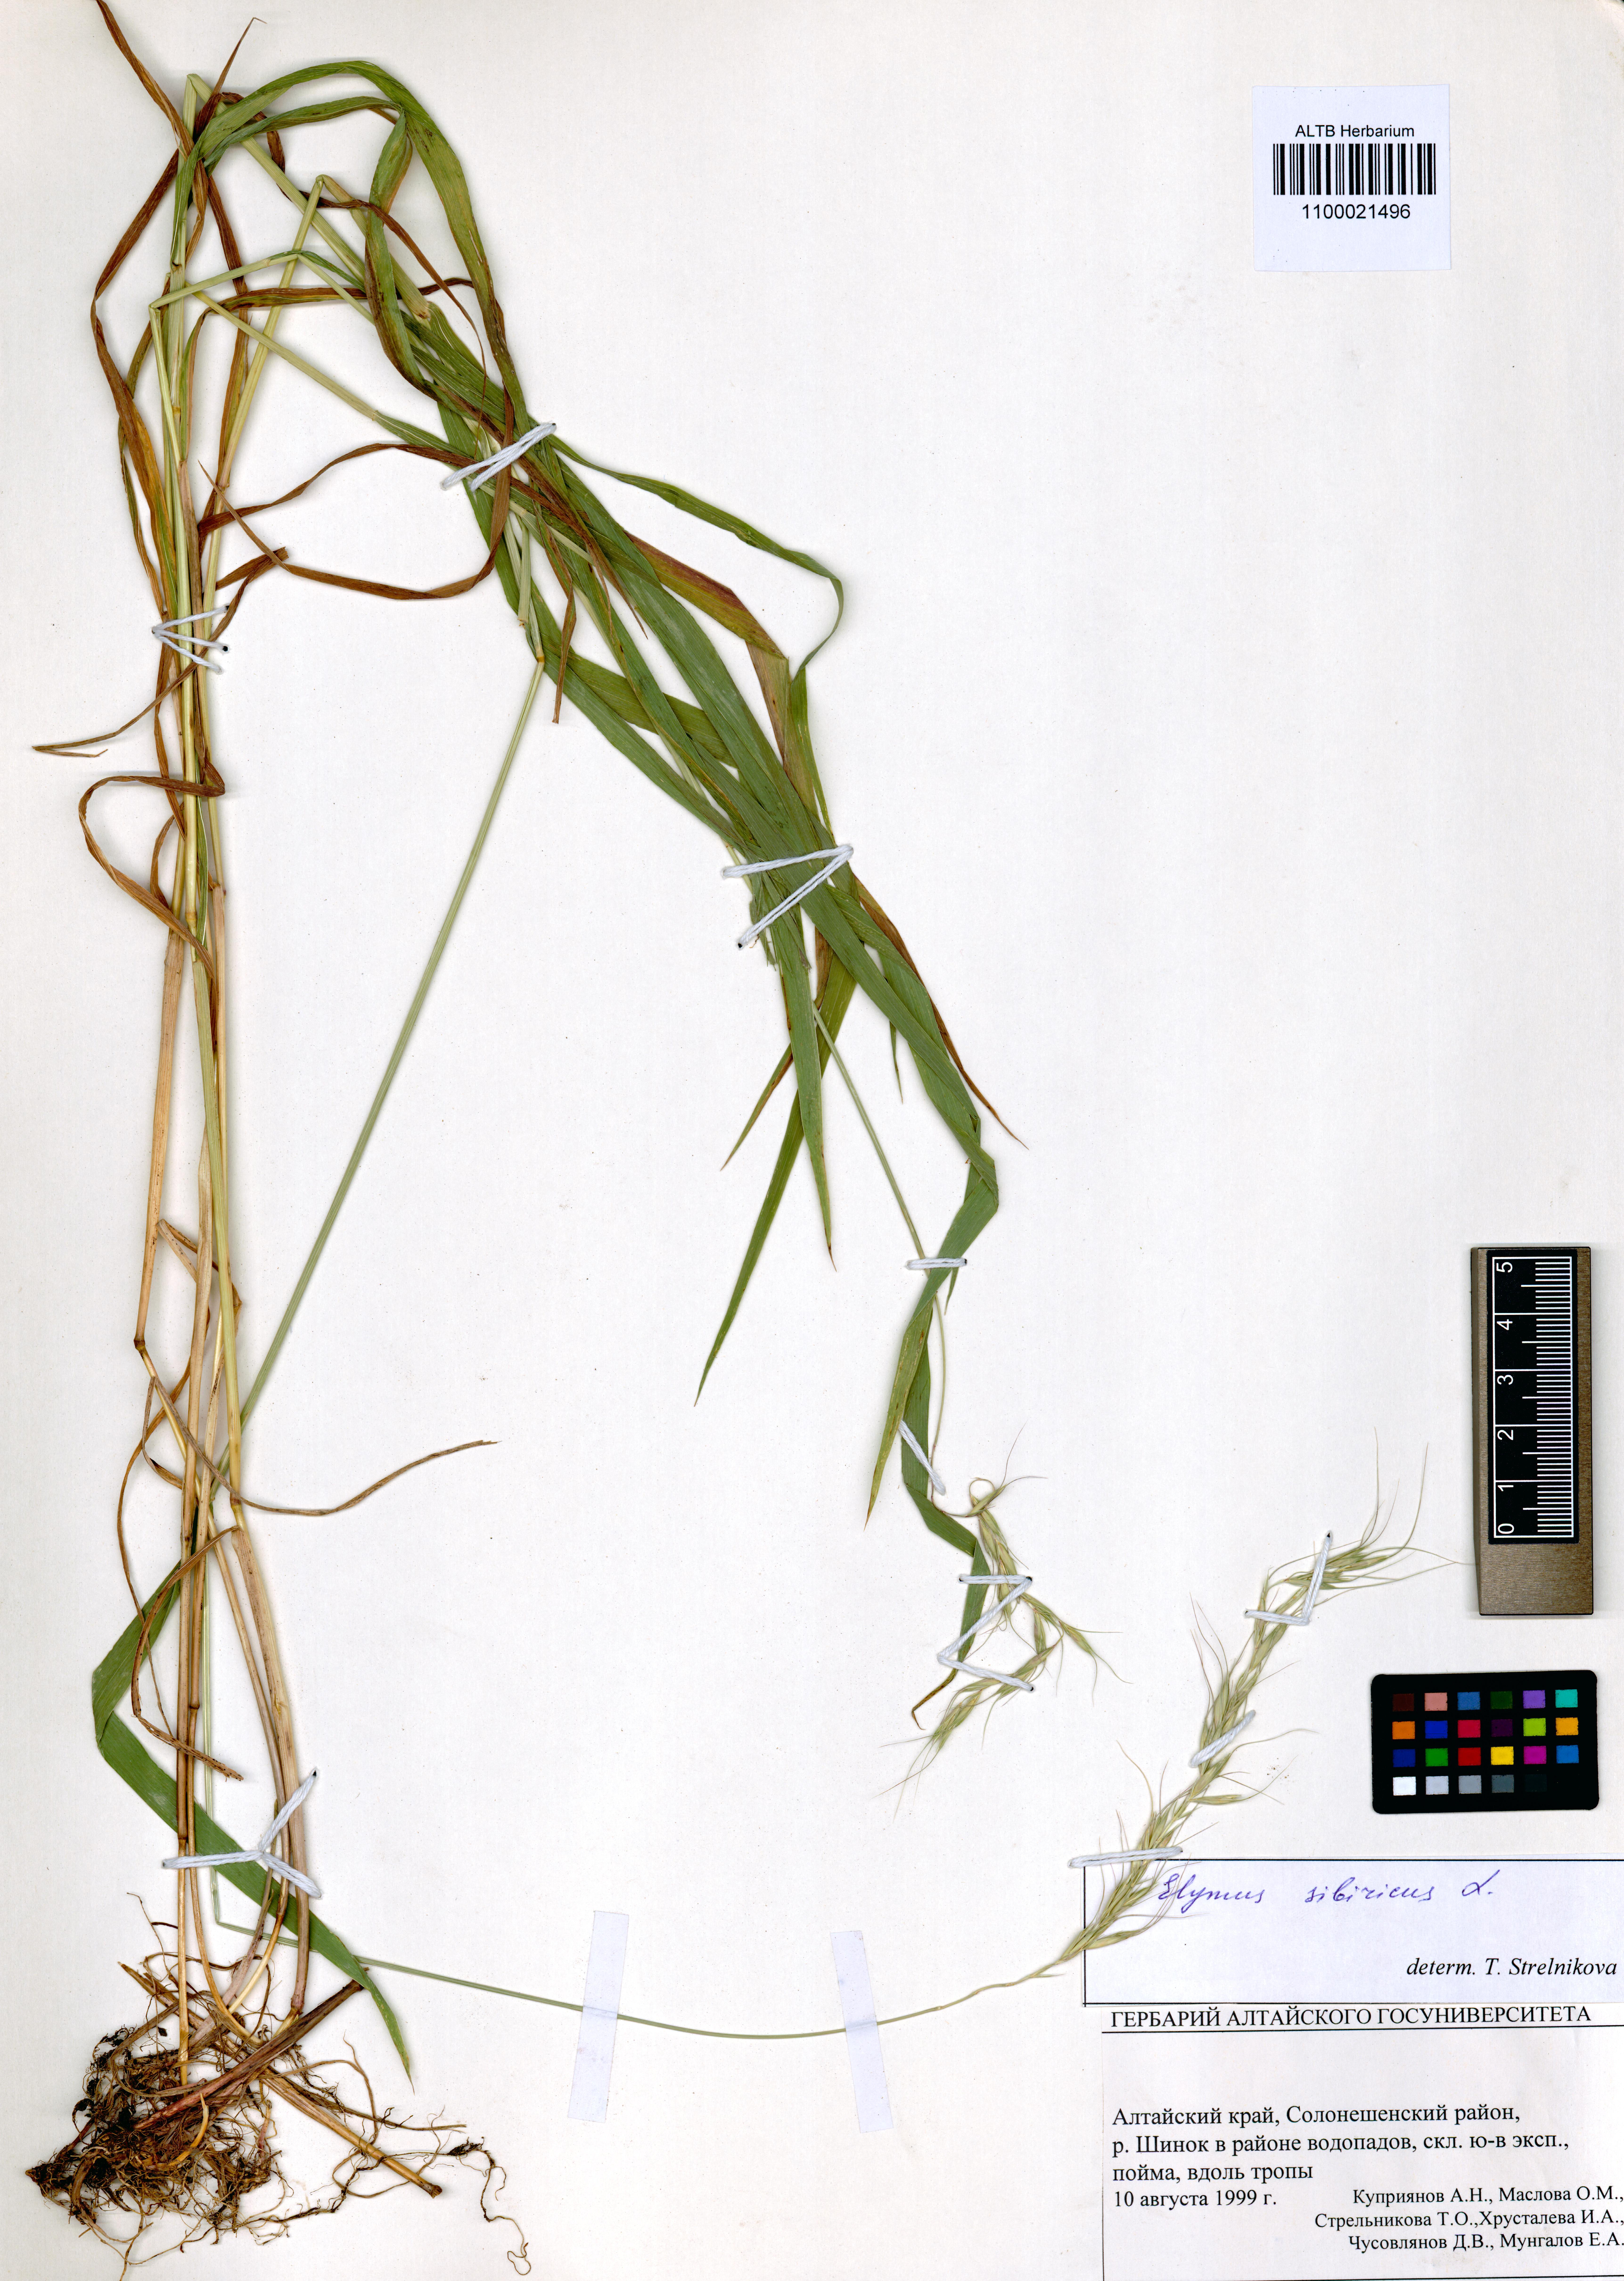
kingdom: Plantae
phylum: Tracheophyta
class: Liliopsida
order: Poales
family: Poaceae
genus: Elymus
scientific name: Elymus sibiricus
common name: Siberian wildrye
